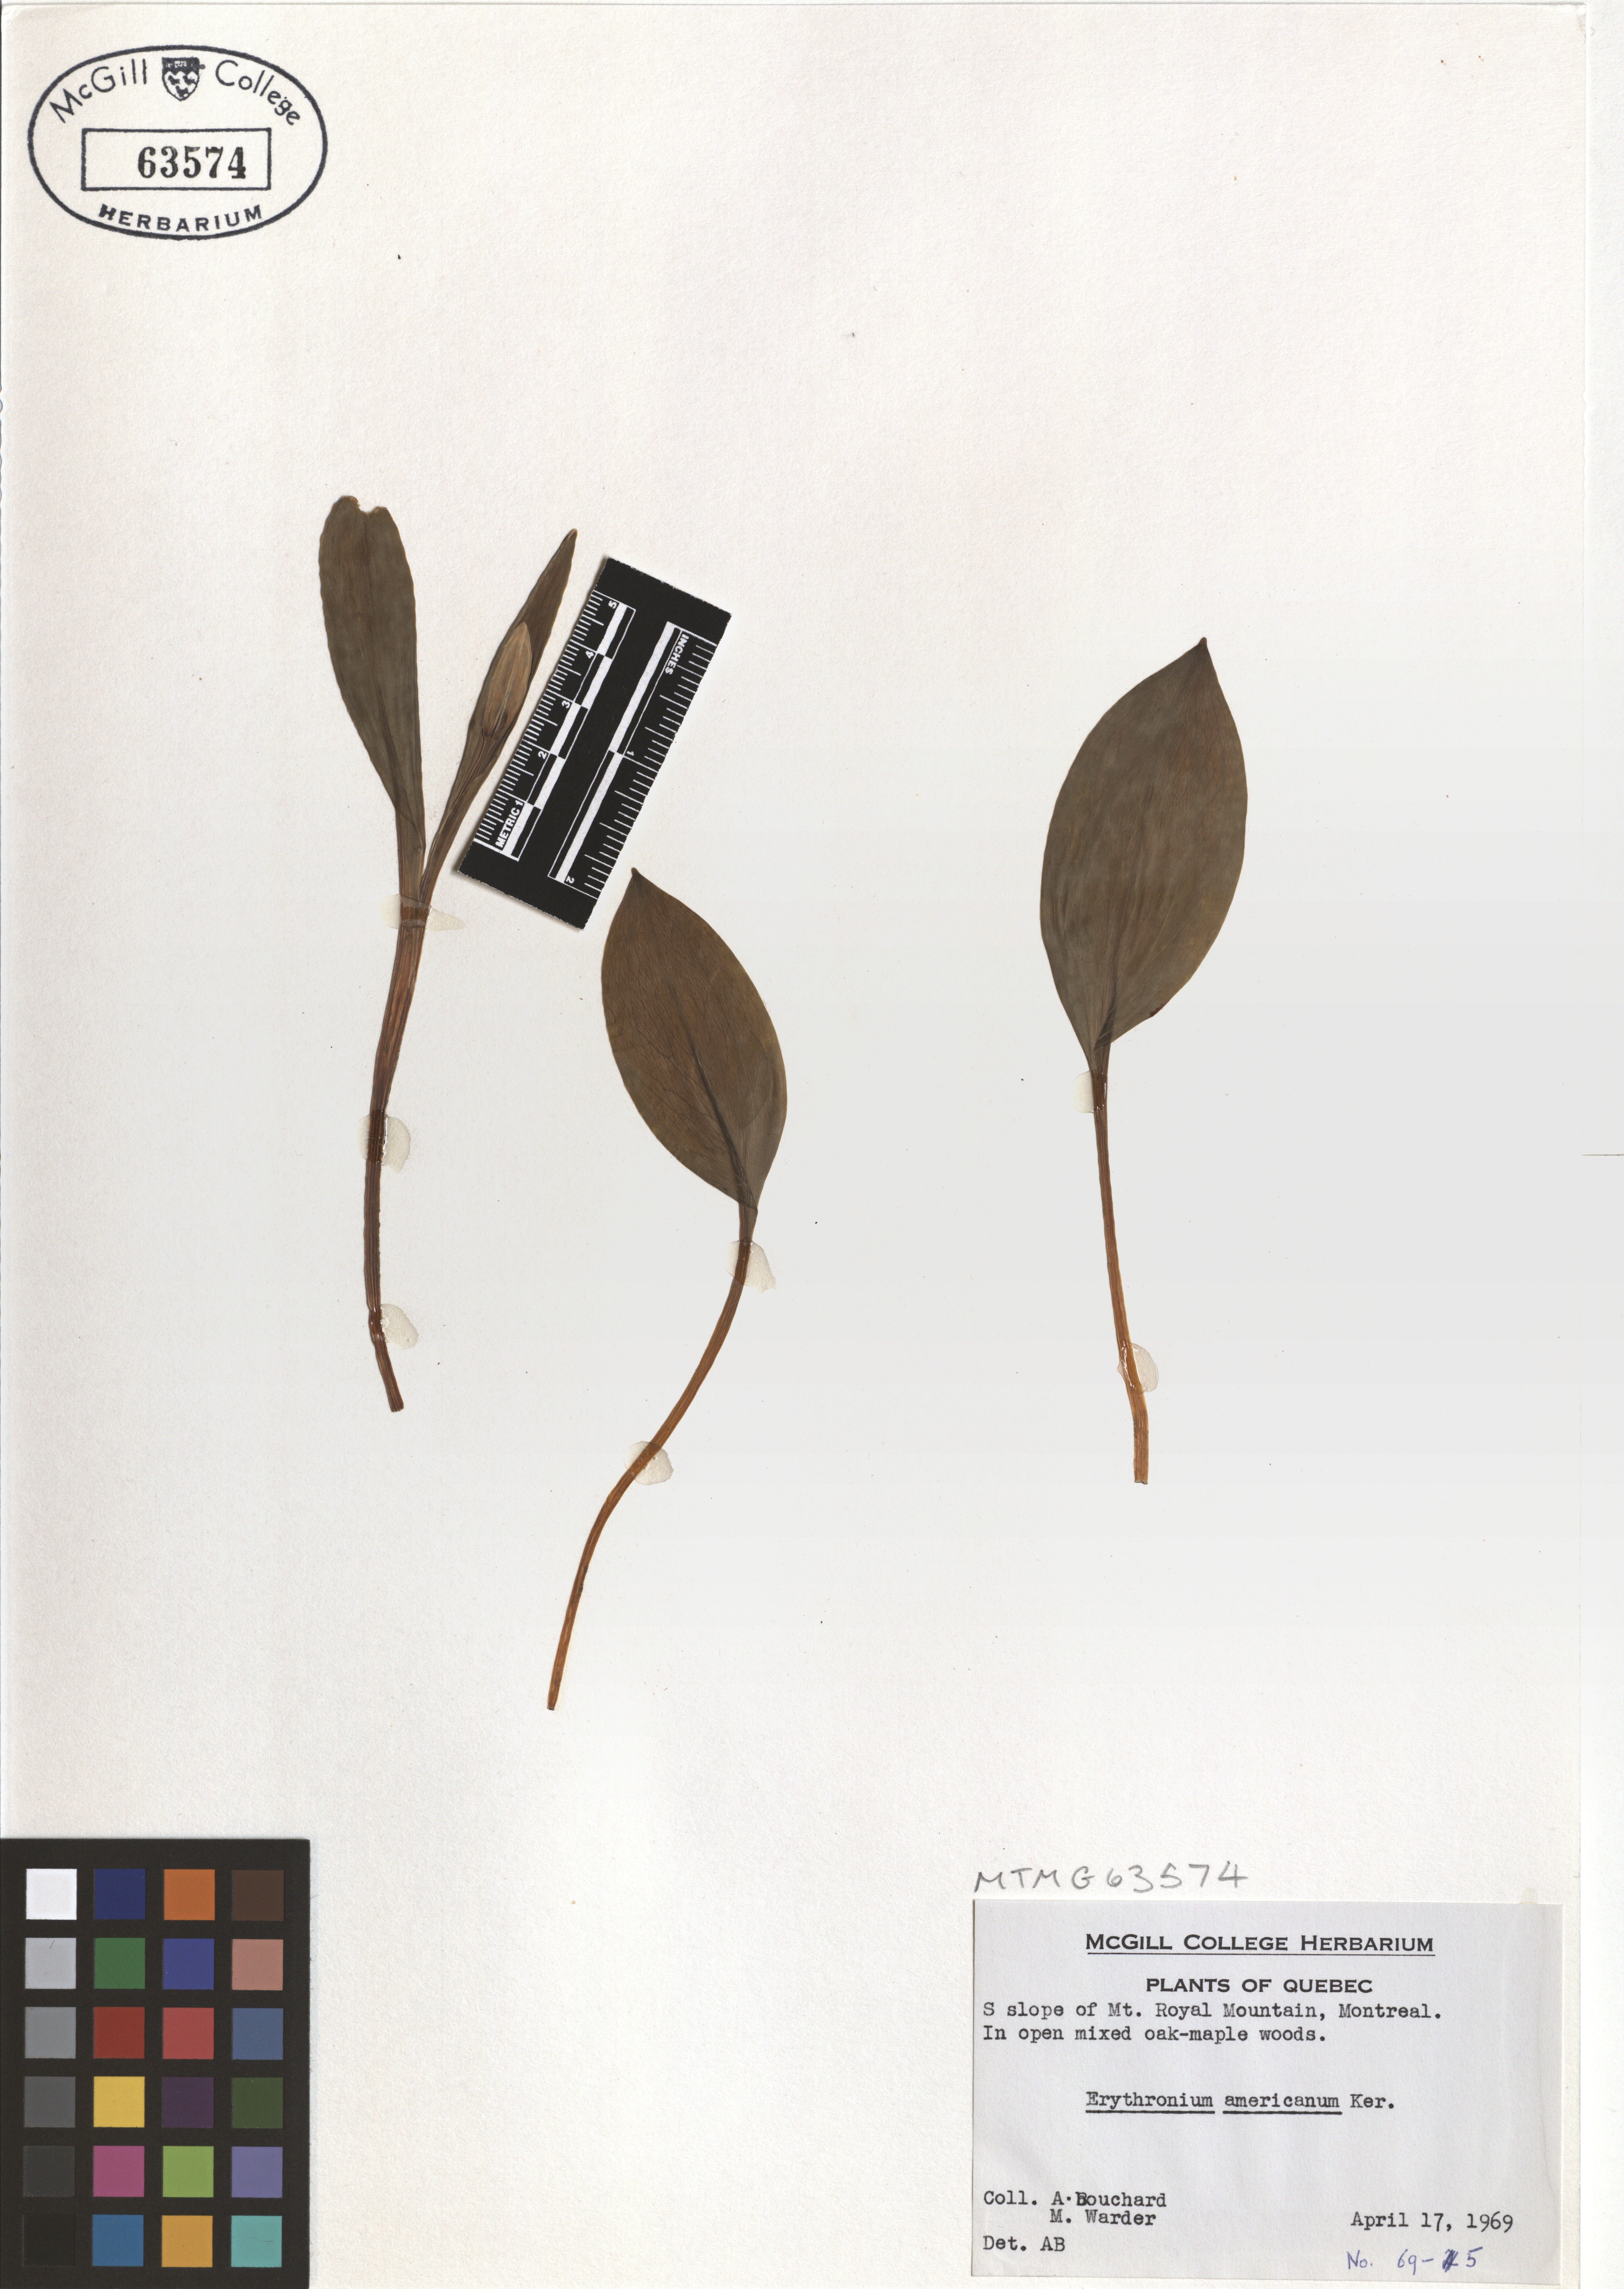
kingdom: Plantae
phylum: Tracheophyta
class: Liliopsida
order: Liliales
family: Liliaceae
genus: Erythronium
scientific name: Erythronium americanum
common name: Yellow adder's-tongue
